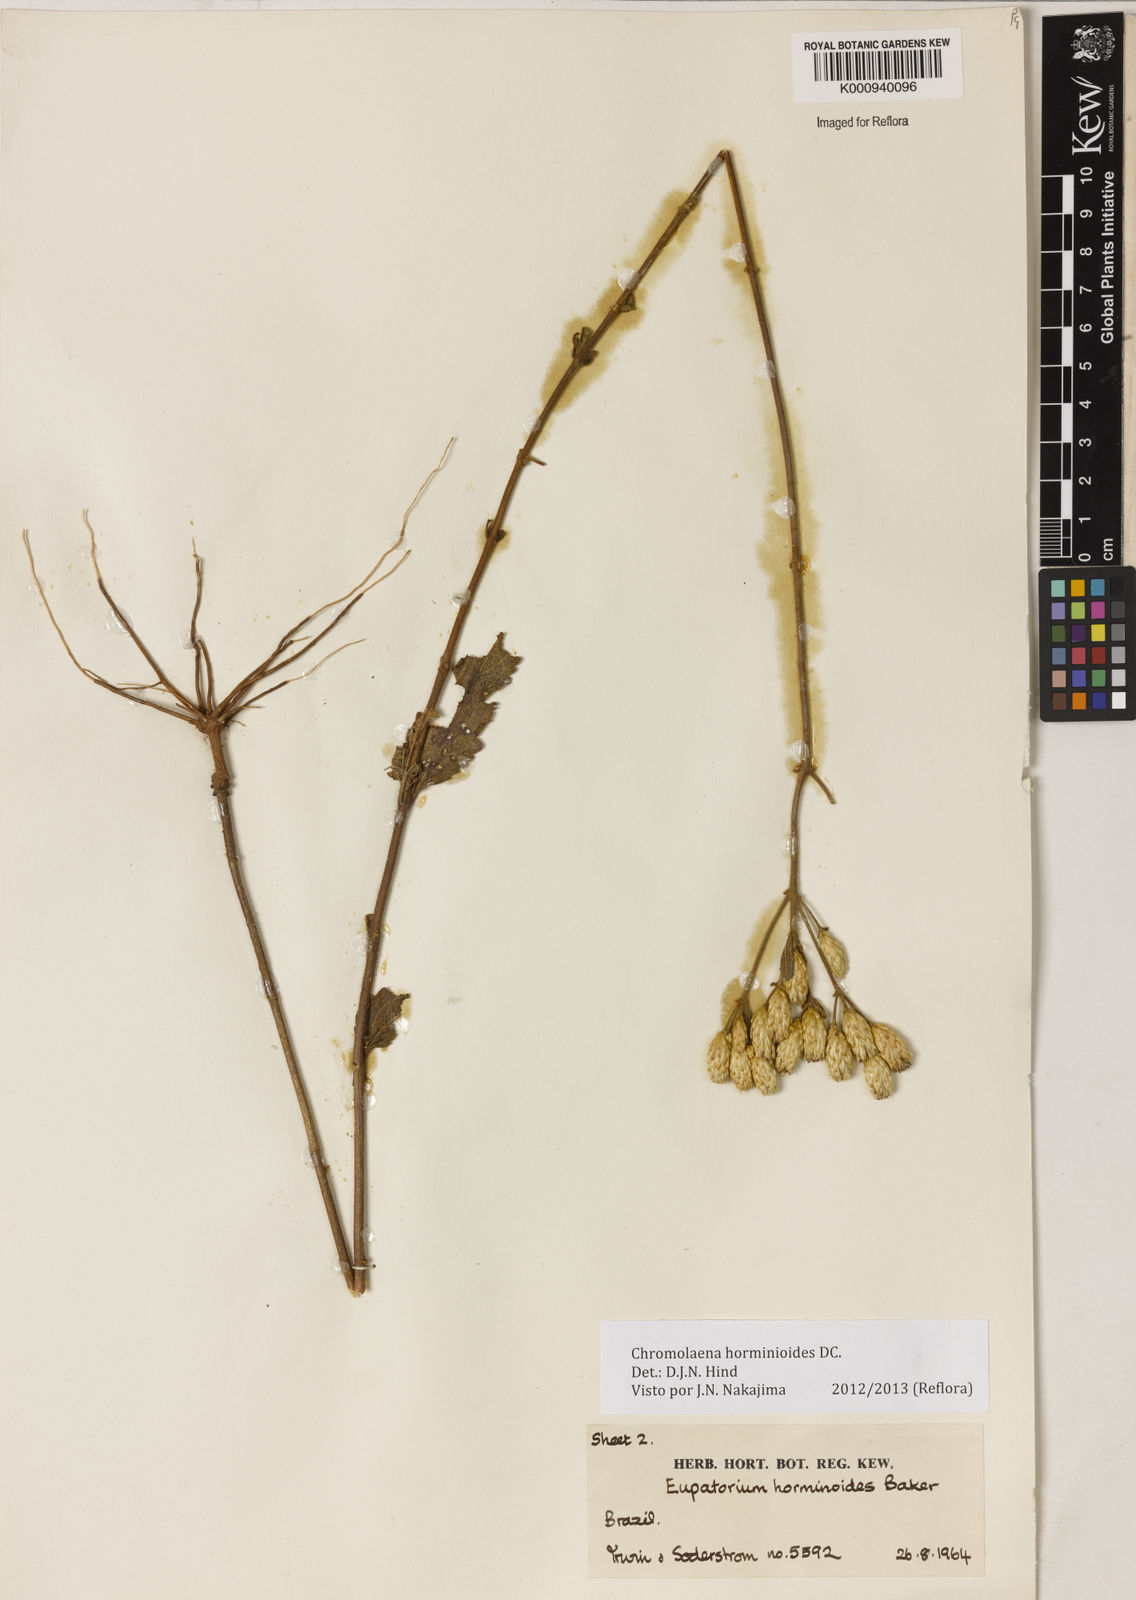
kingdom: Plantae
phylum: Tracheophyta
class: Magnoliopsida
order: Asterales
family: Asteraceae
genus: Chromolaena
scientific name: Chromolaena horminoides
